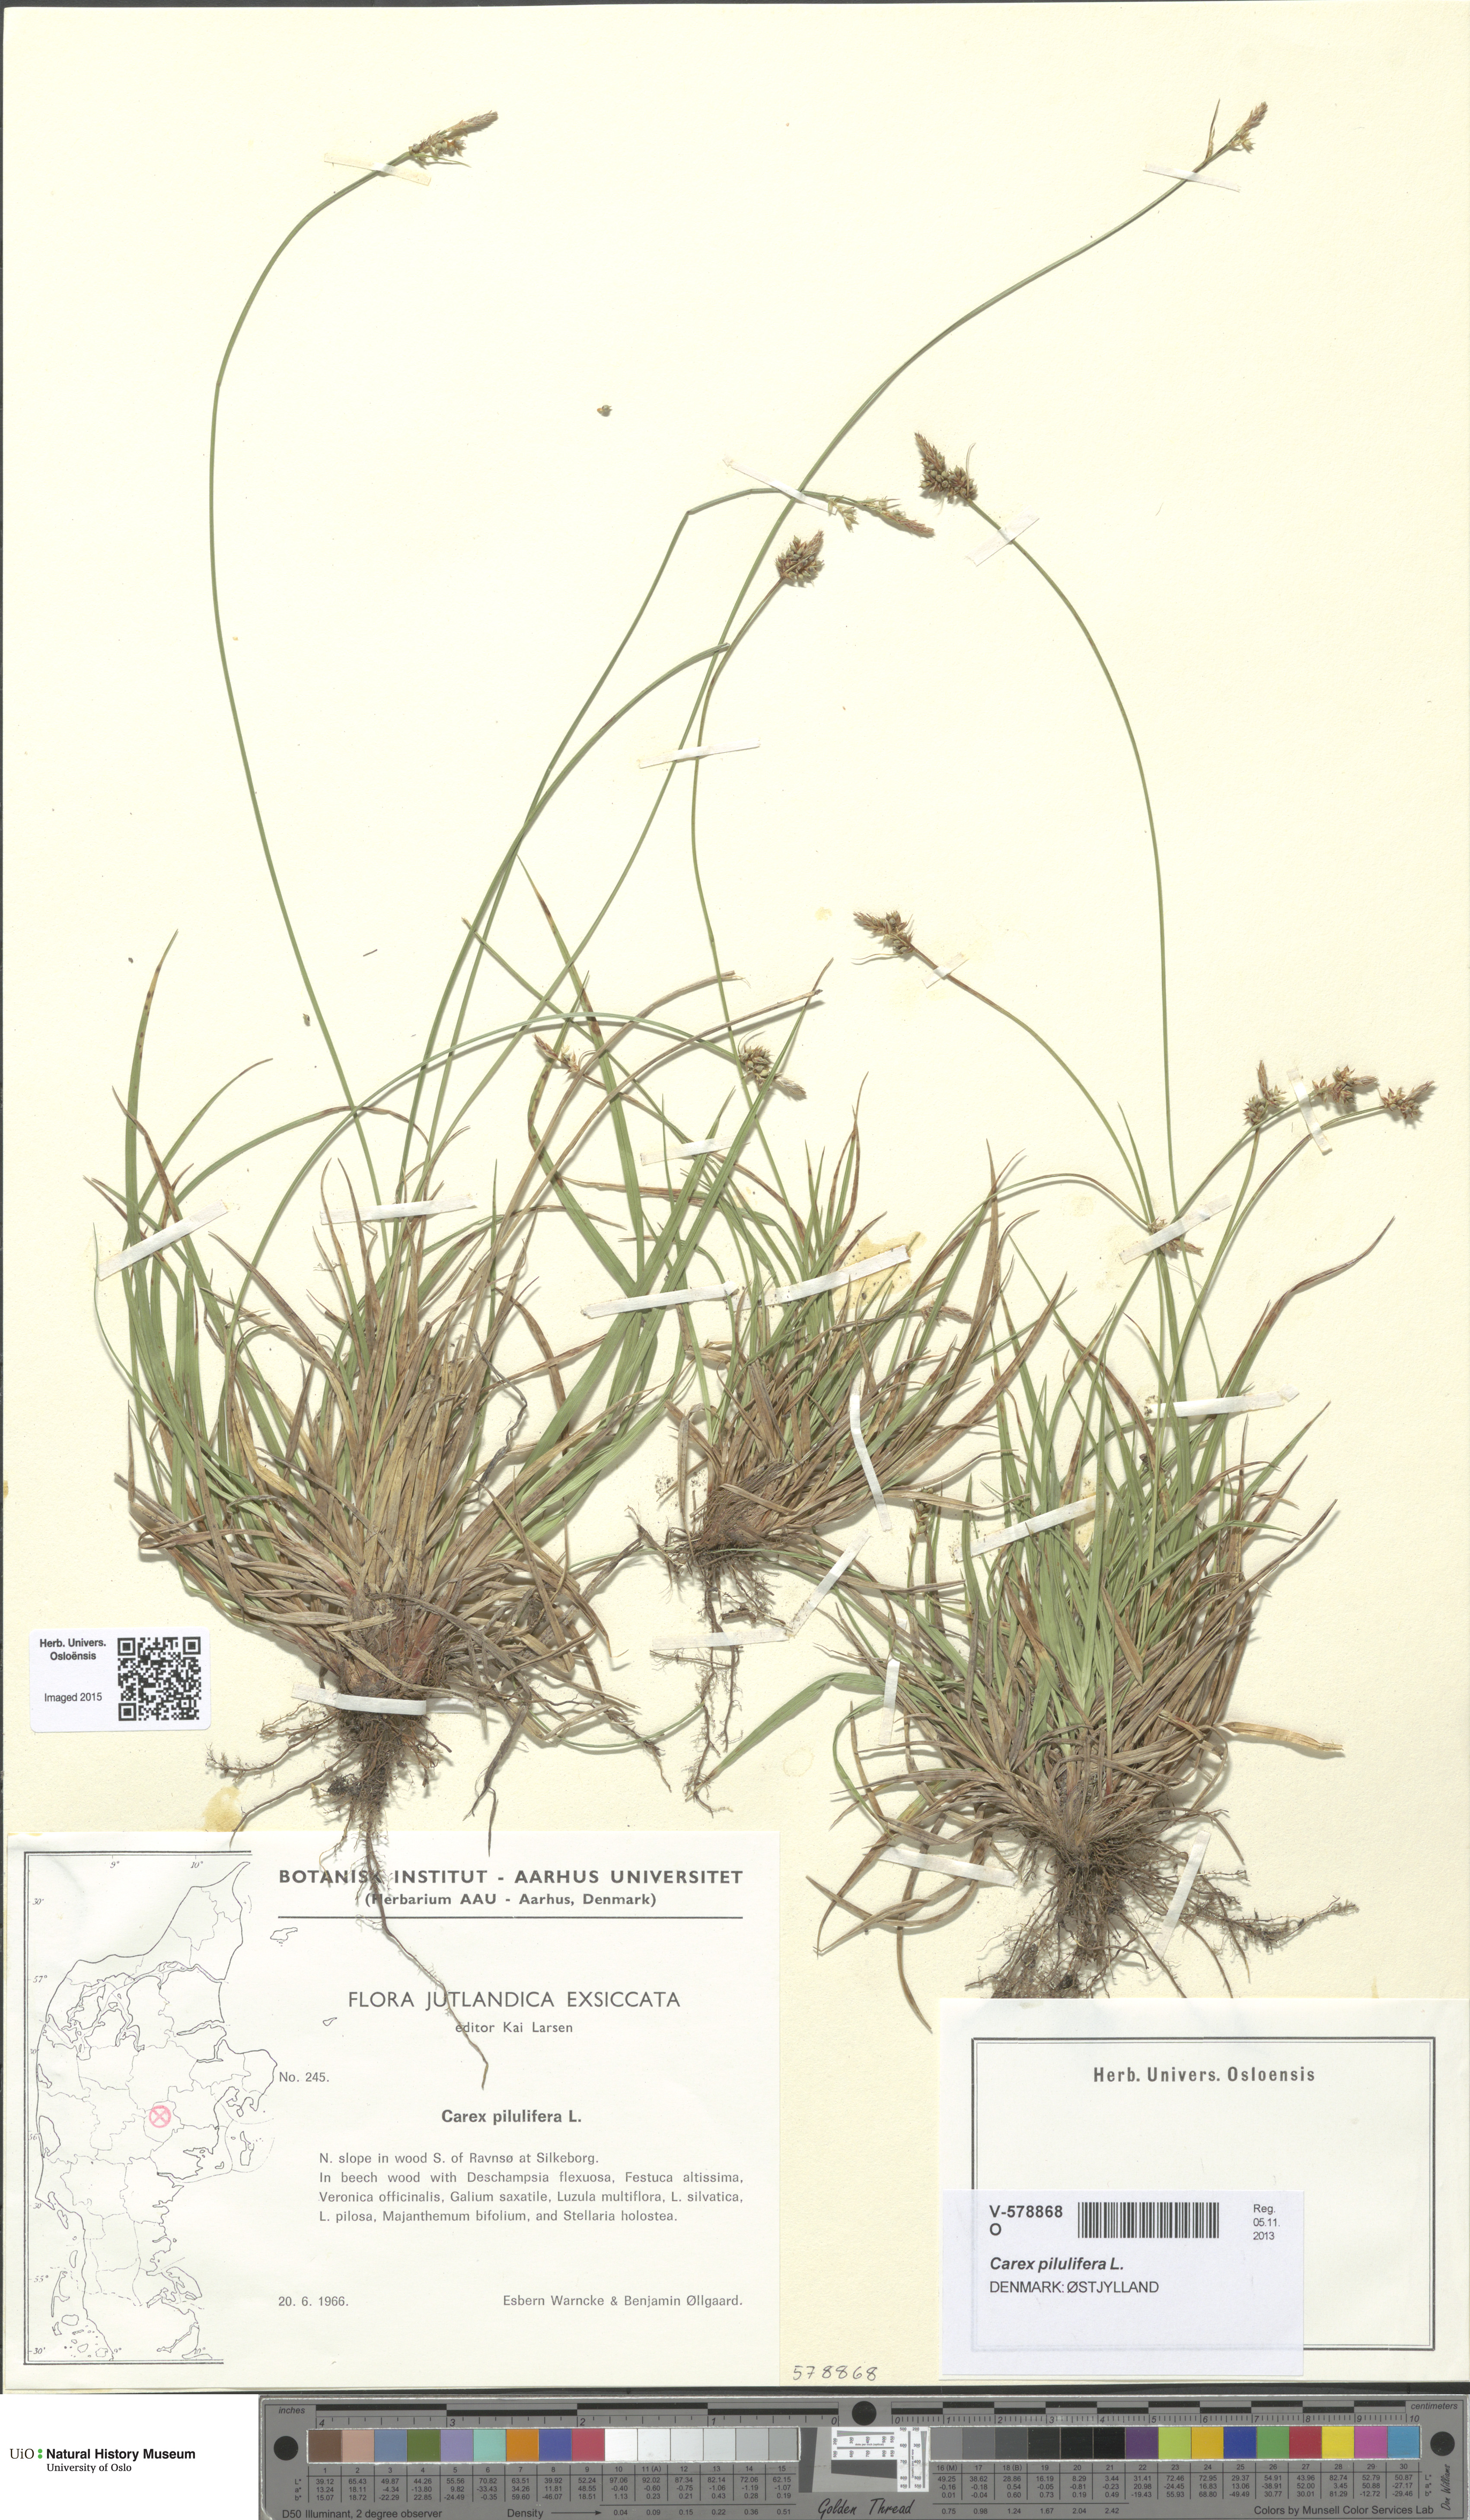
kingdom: Plantae
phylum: Tracheophyta
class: Liliopsida
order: Poales
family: Cyperaceae
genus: Carex
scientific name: Carex pilulifera
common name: Pill sedge
